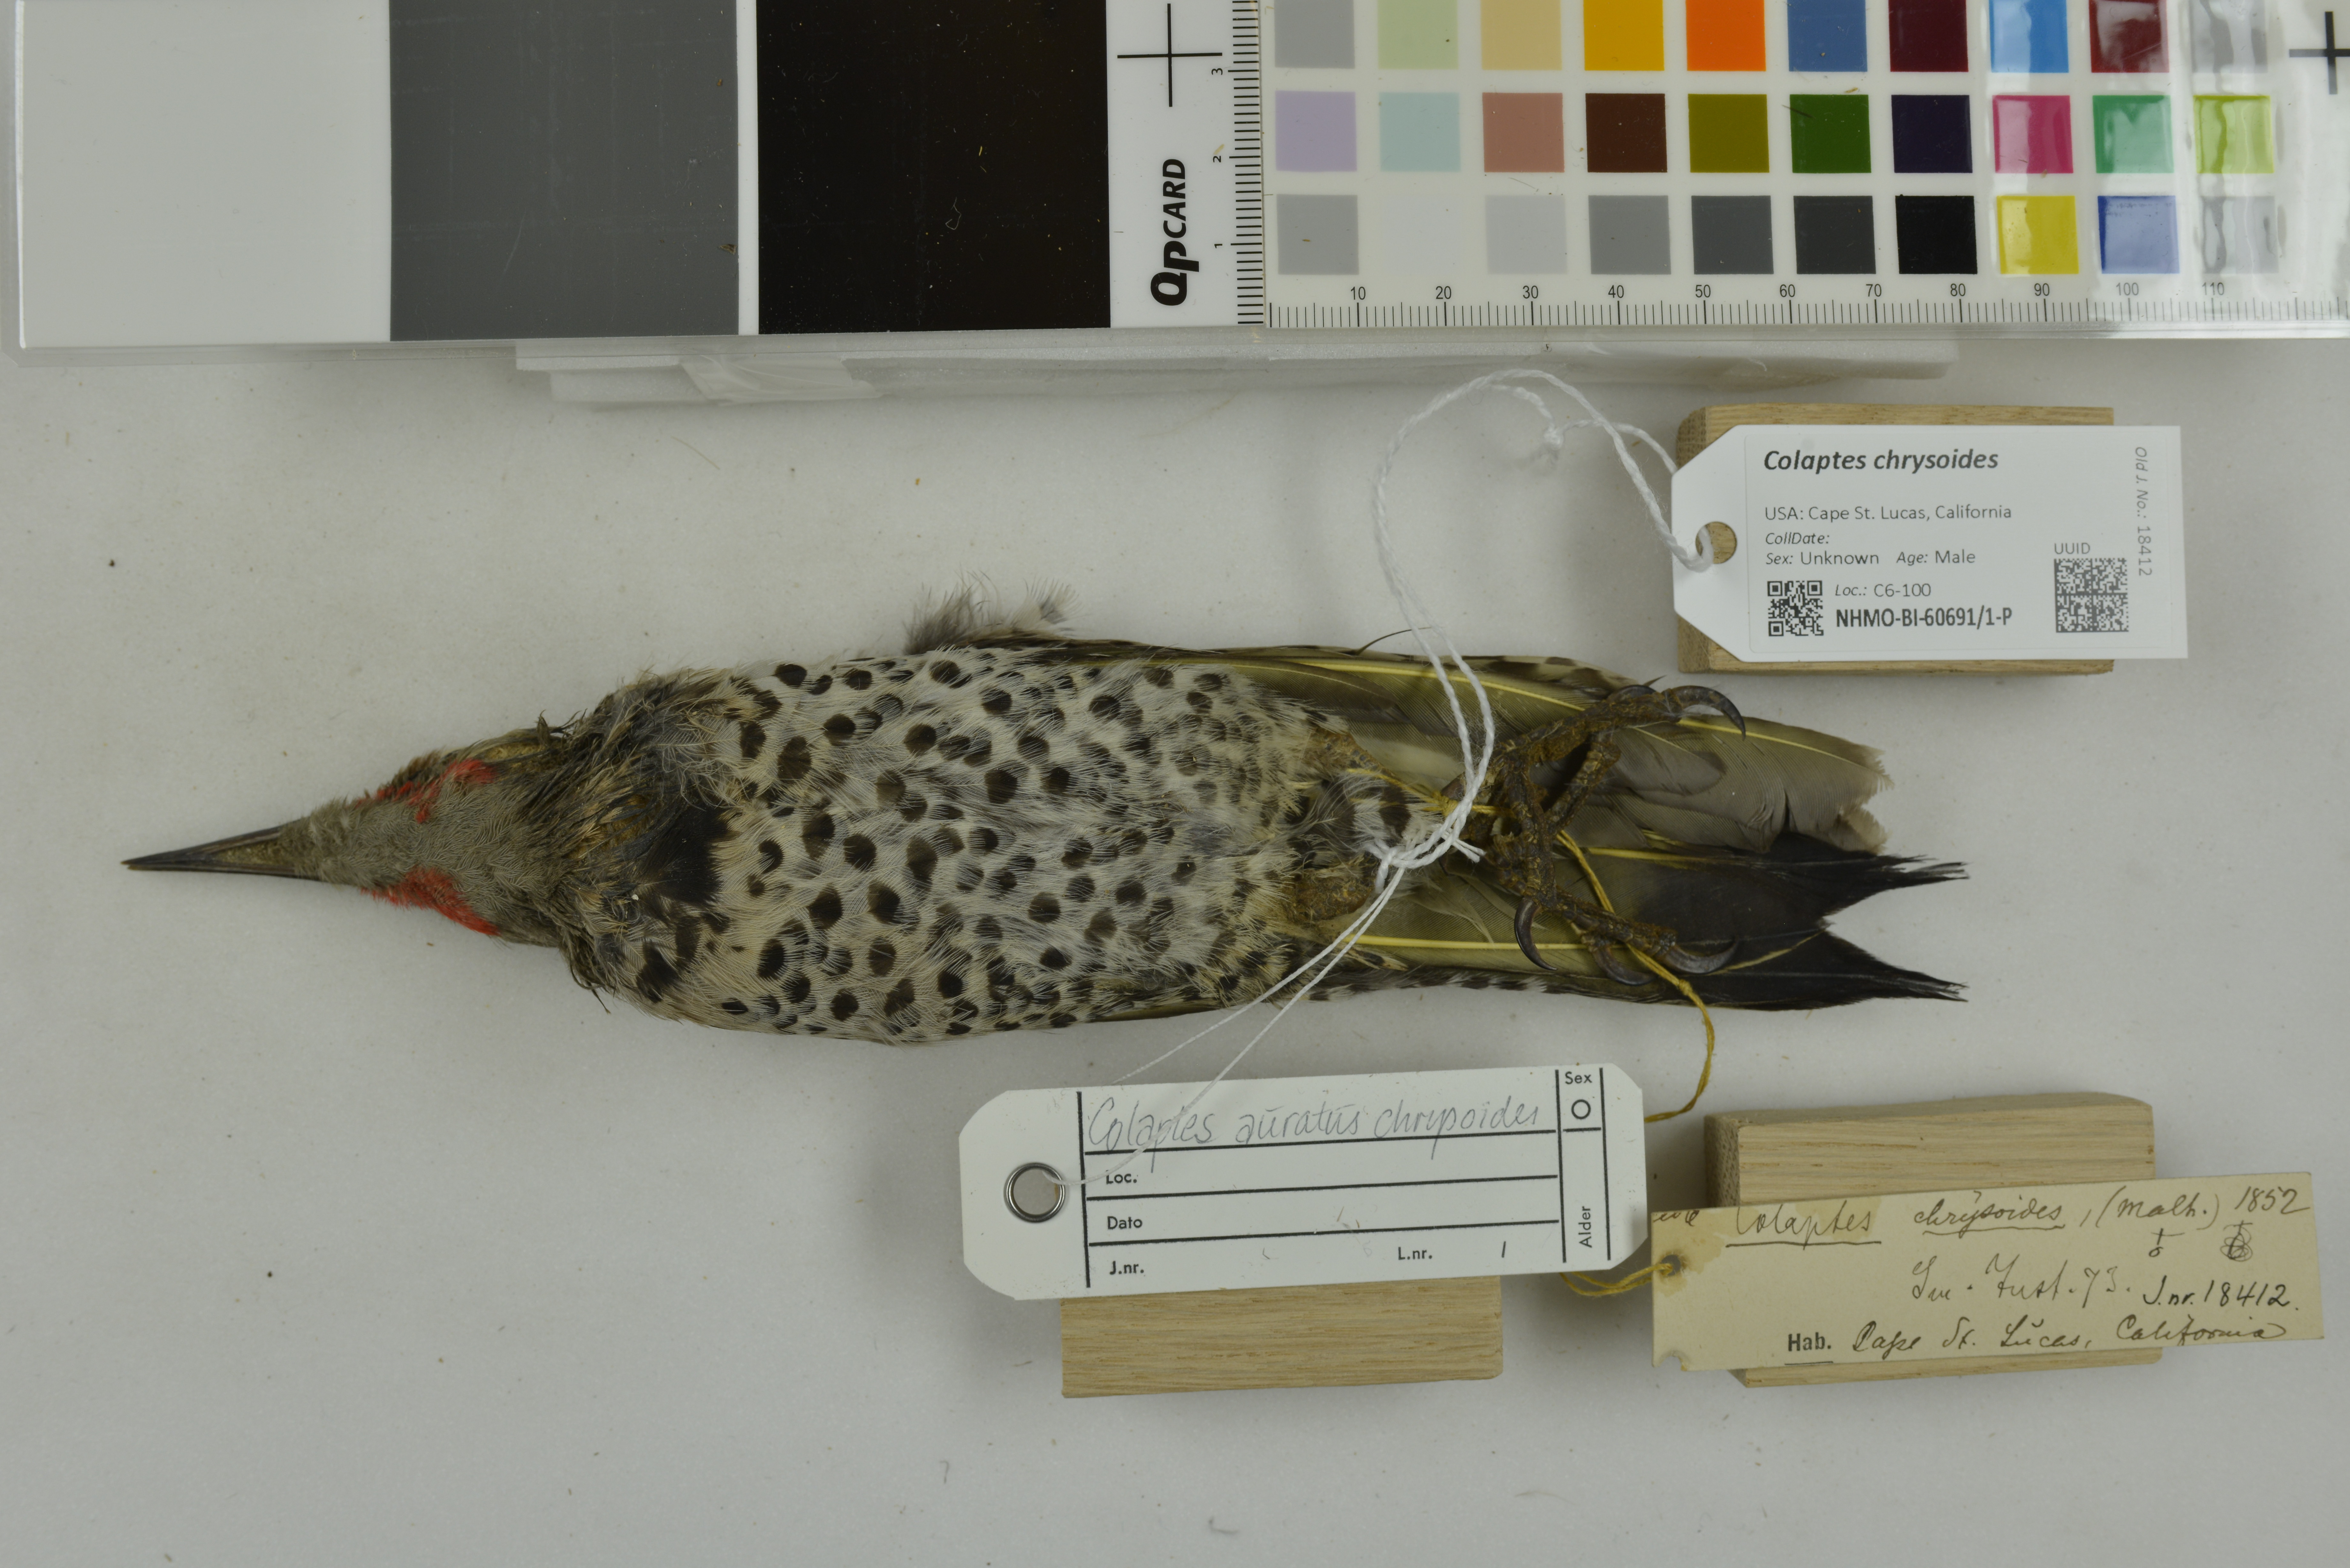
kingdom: Animalia
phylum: Chordata
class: Aves
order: Piciformes
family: Picidae
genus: Colaptes
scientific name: Colaptes chrysoides
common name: Gilded flicker
